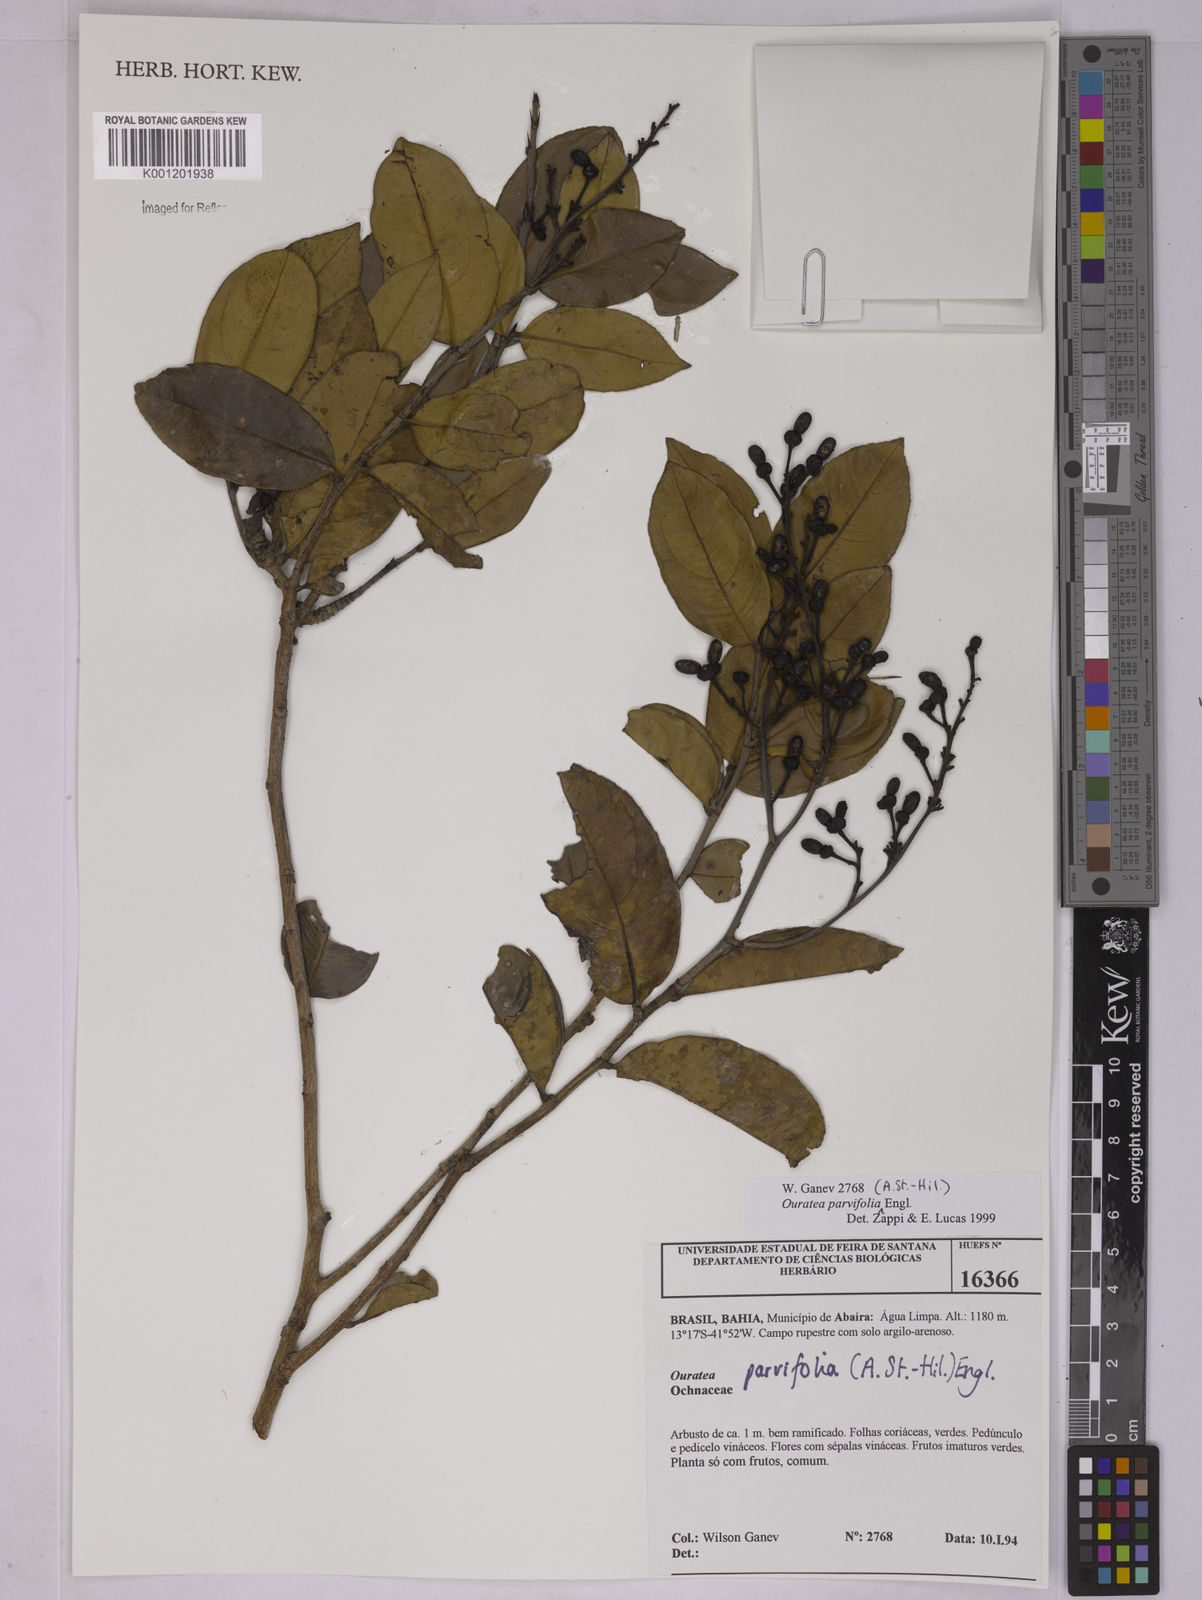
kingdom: Plantae
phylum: Tracheophyta
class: Magnoliopsida
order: Malpighiales
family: Ochnaceae
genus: Ouratea
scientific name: Ouratea parviflora
